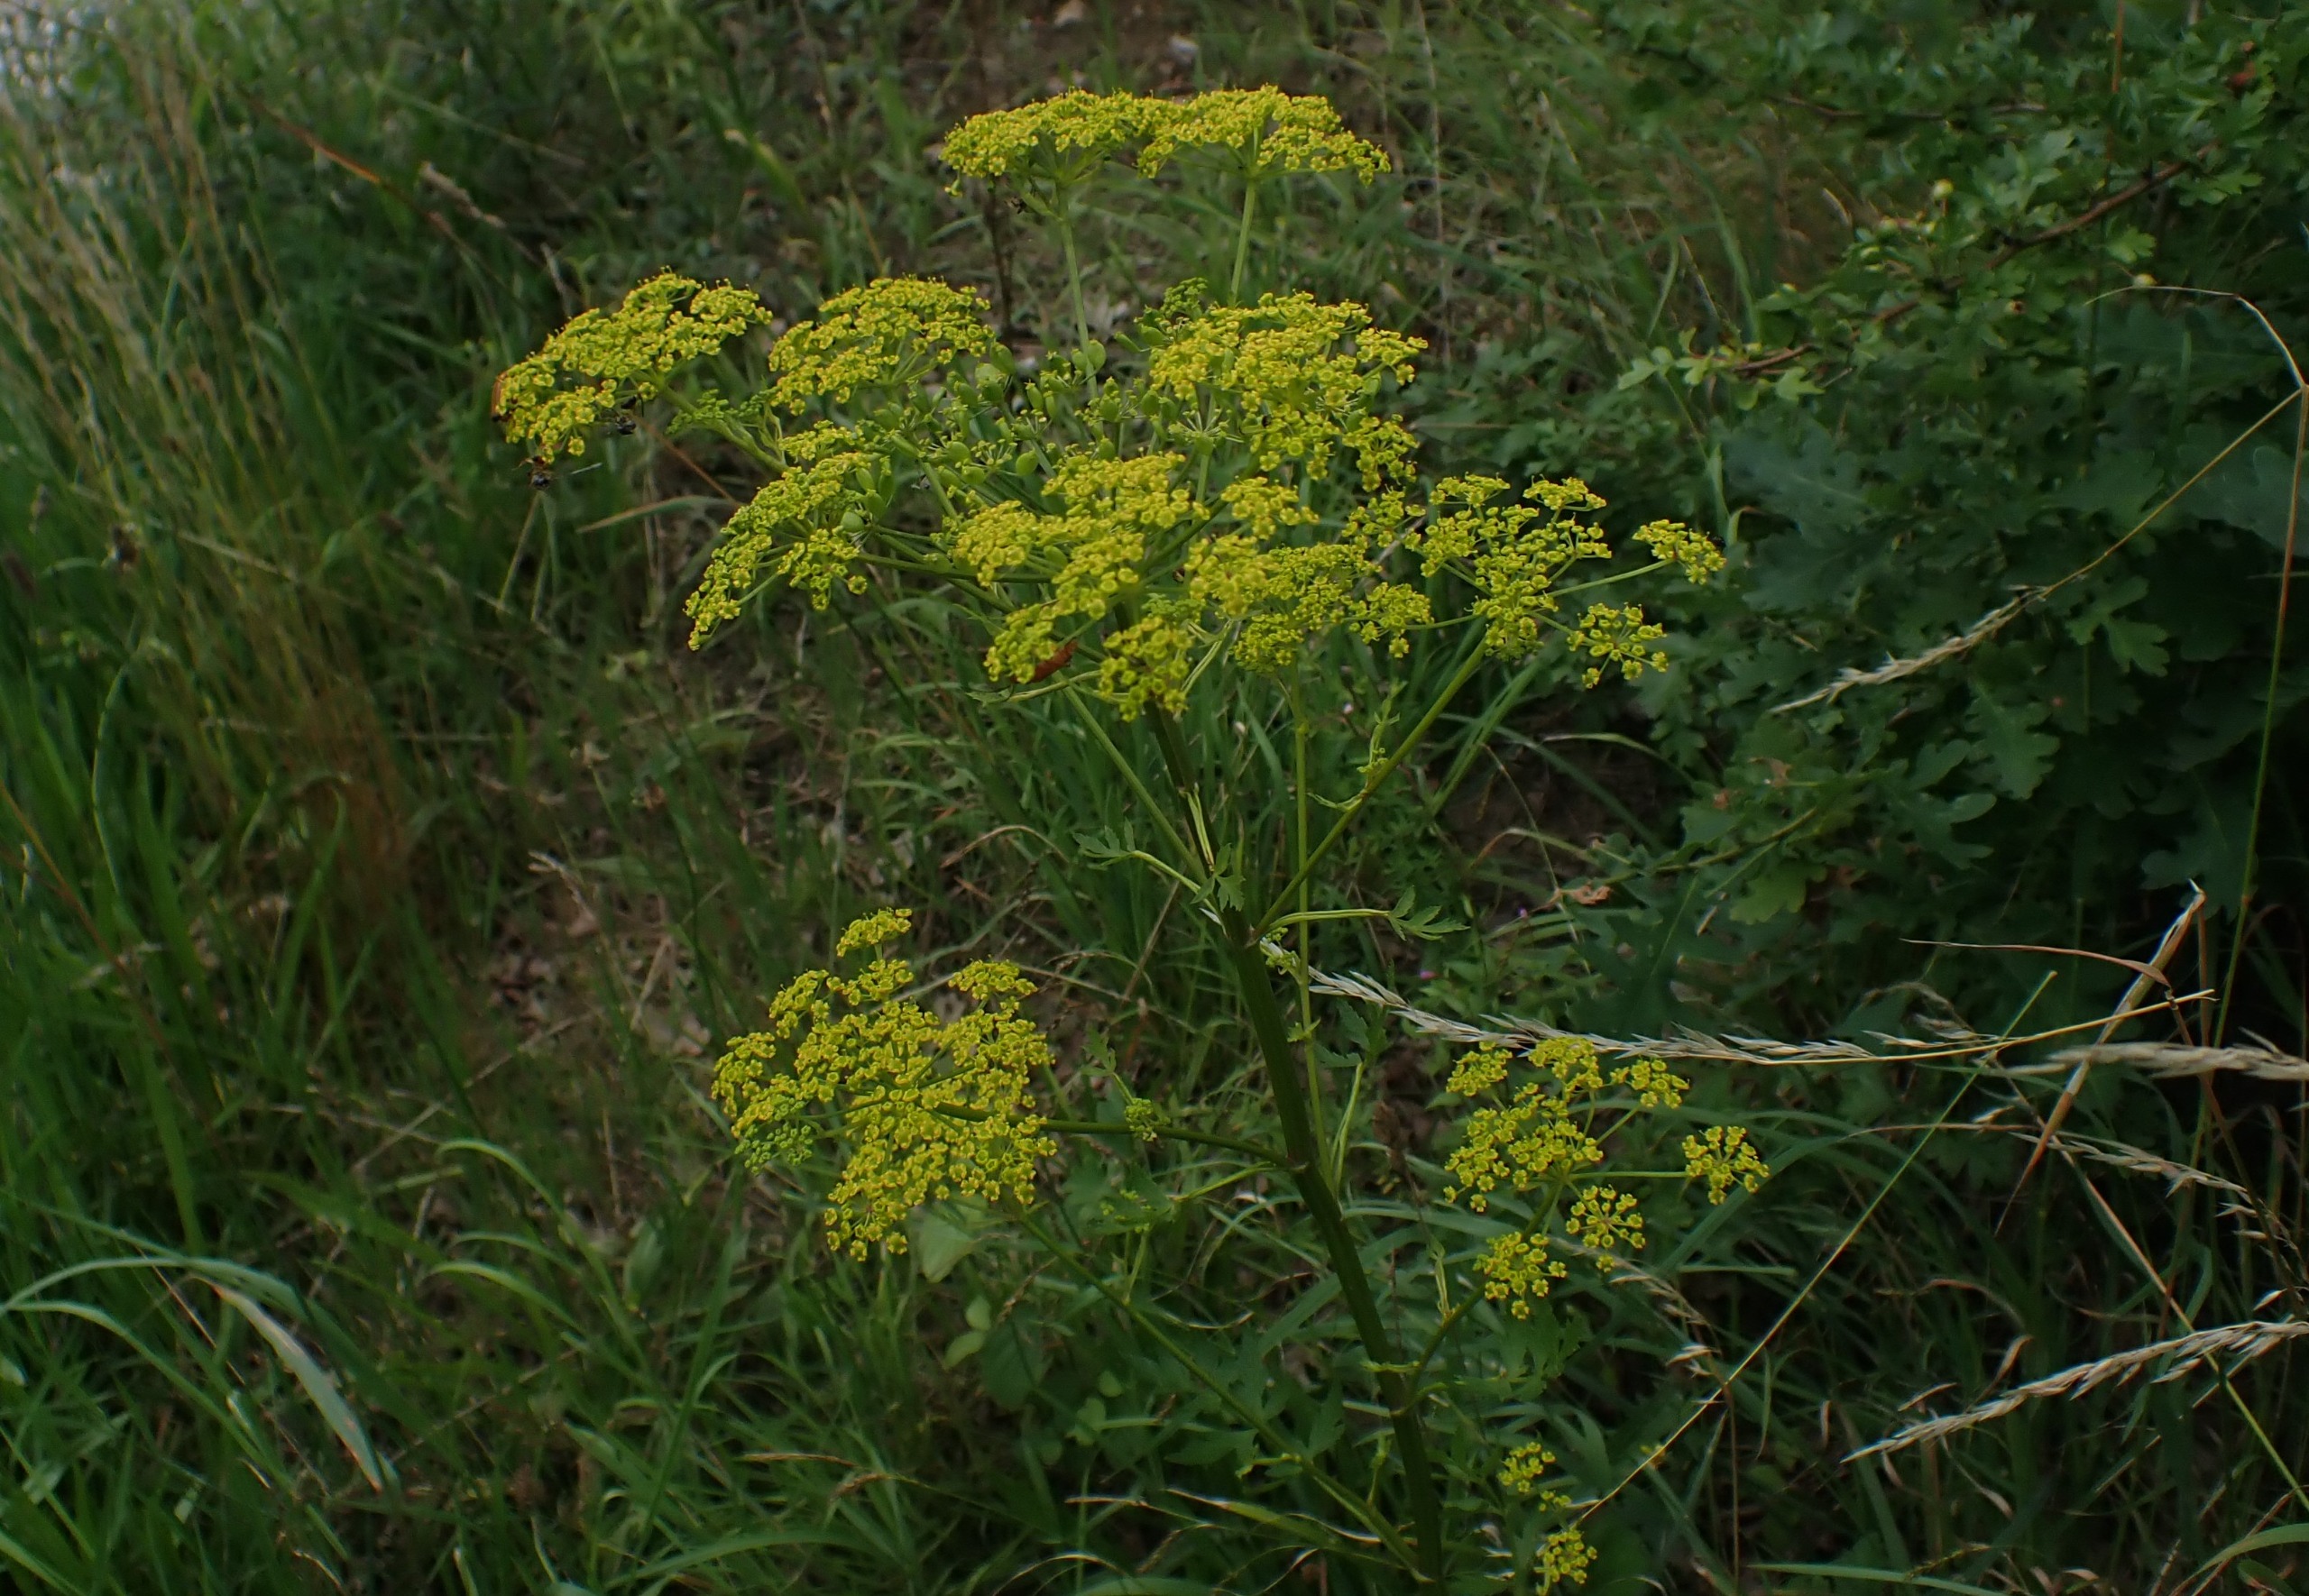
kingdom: Plantae
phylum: Tracheophyta
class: Magnoliopsida
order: Apiales
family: Apiaceae
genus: Pastinaca
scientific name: Pastinaca sativa
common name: Pastinak
